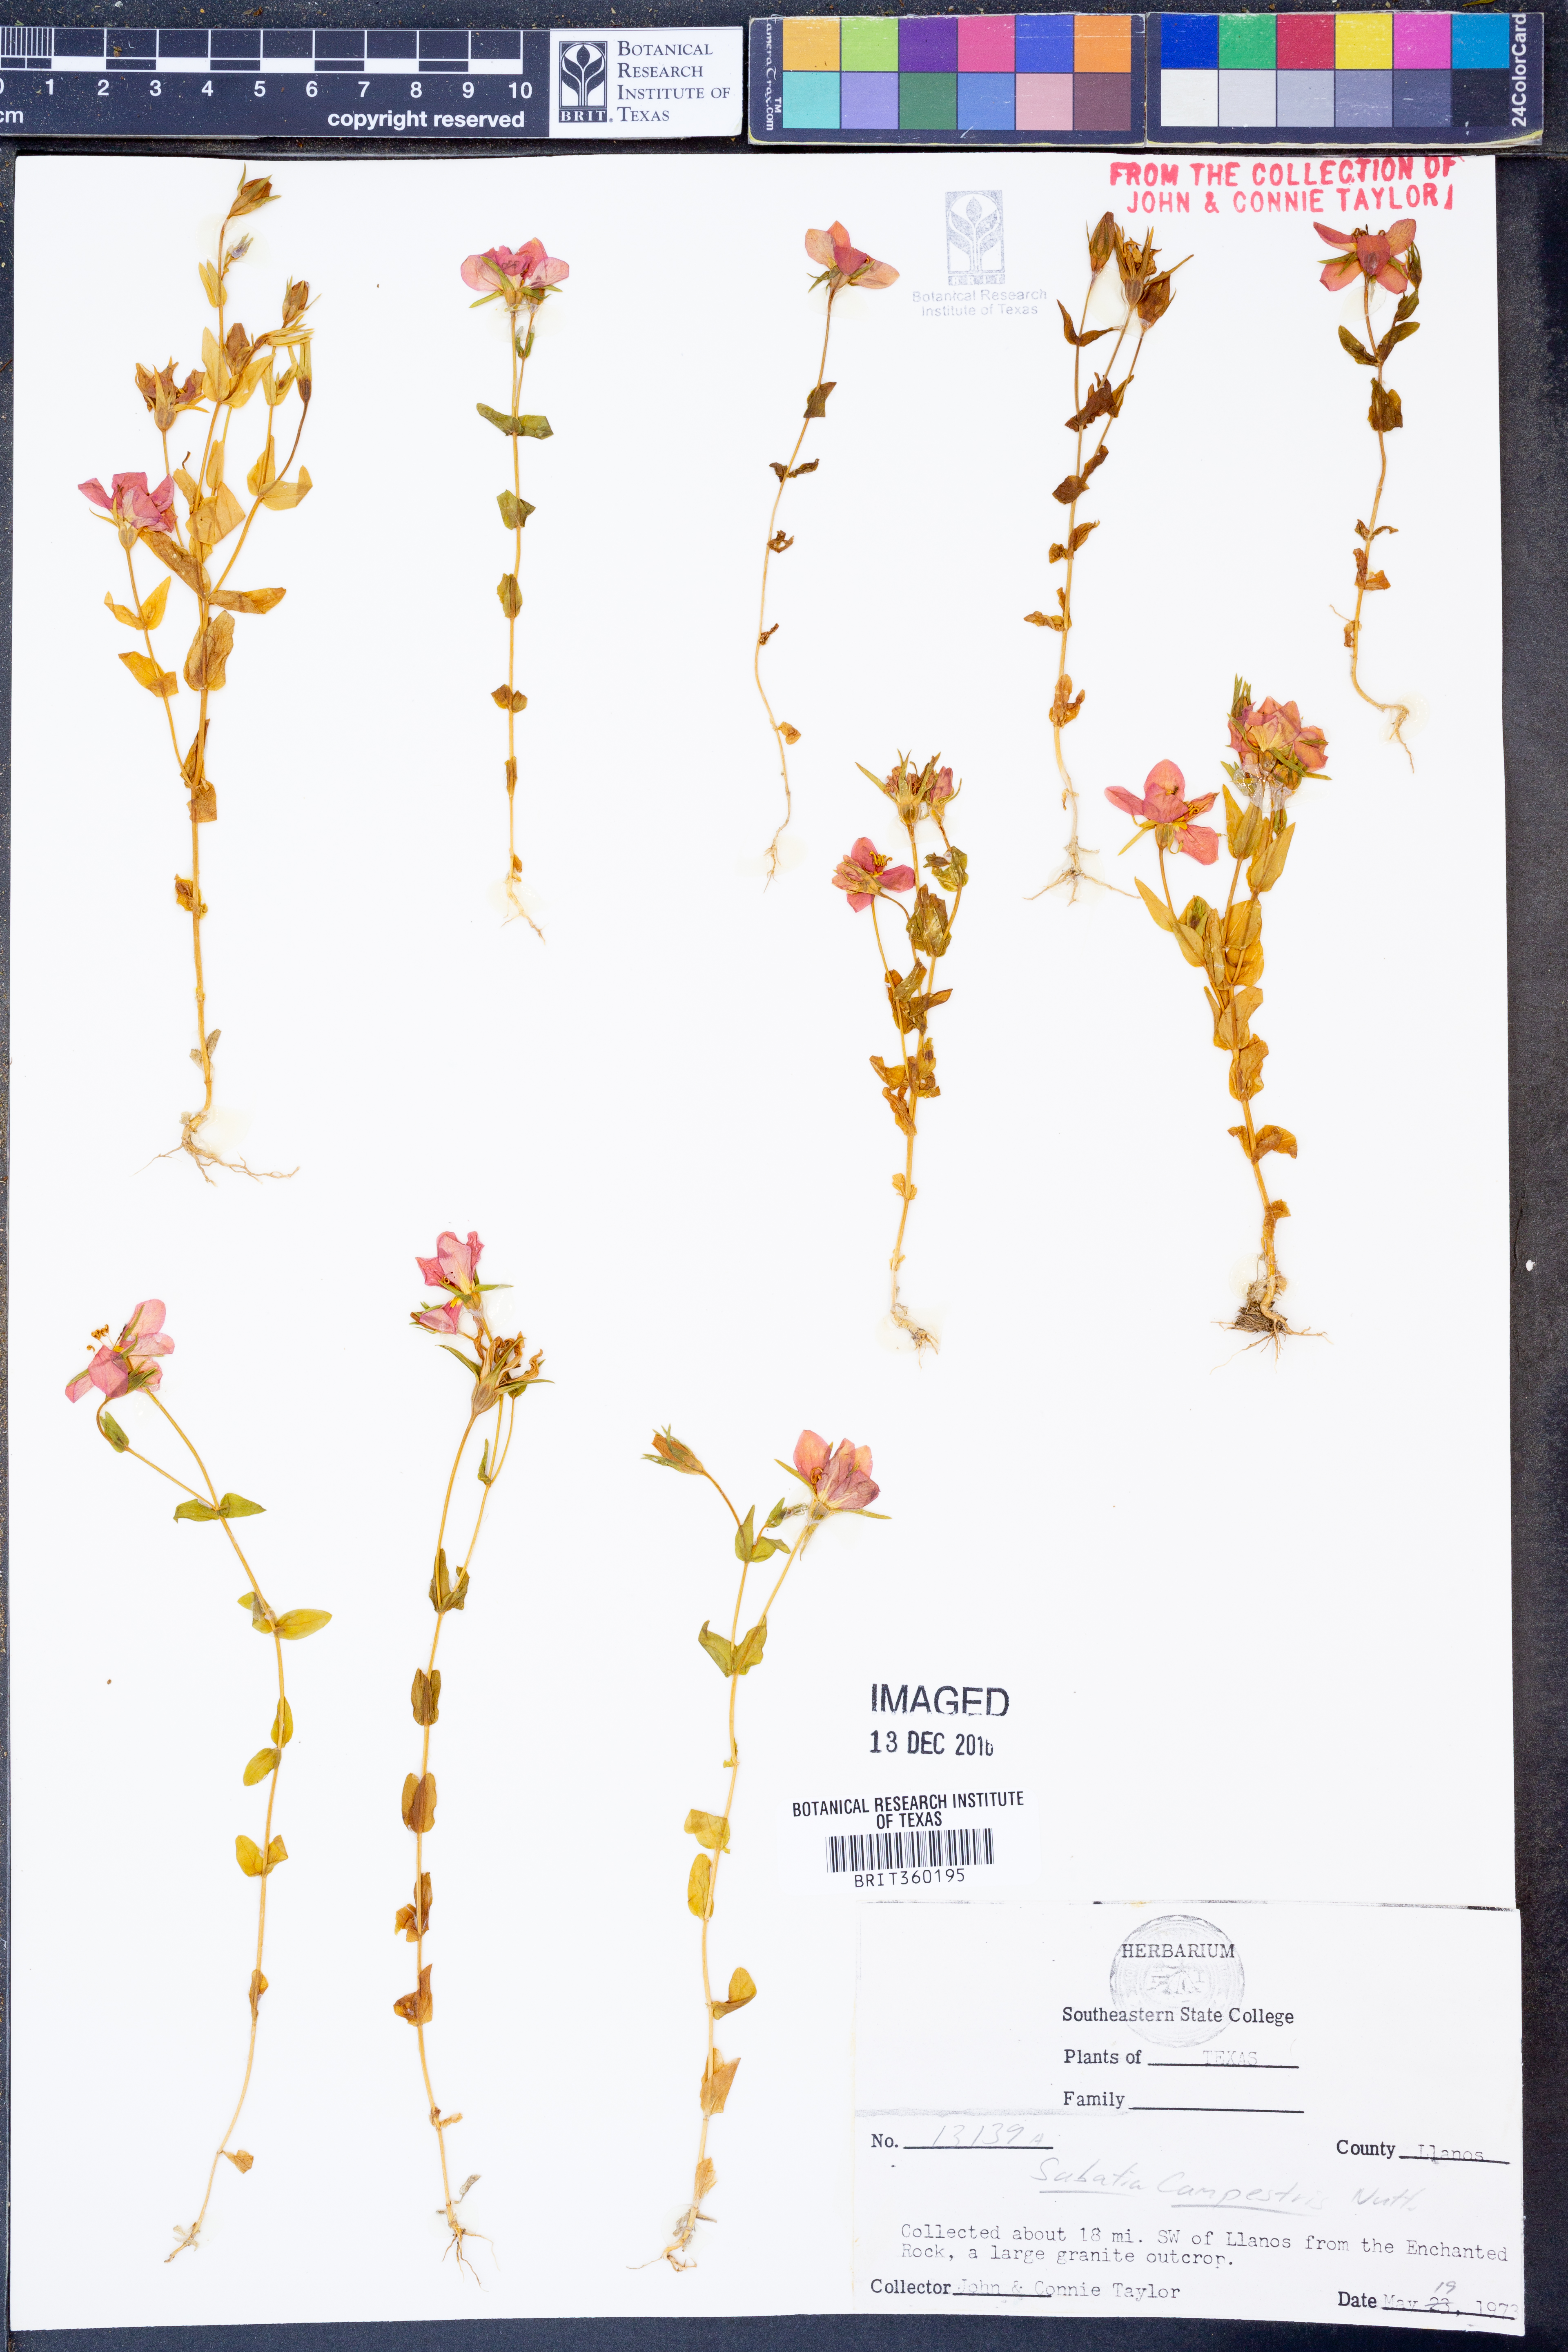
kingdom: Plantae
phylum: Tracheophyta
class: Magnoliopsida
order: Gentianales
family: Gentianaceae
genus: Sabatia
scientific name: Sabatia campestris
